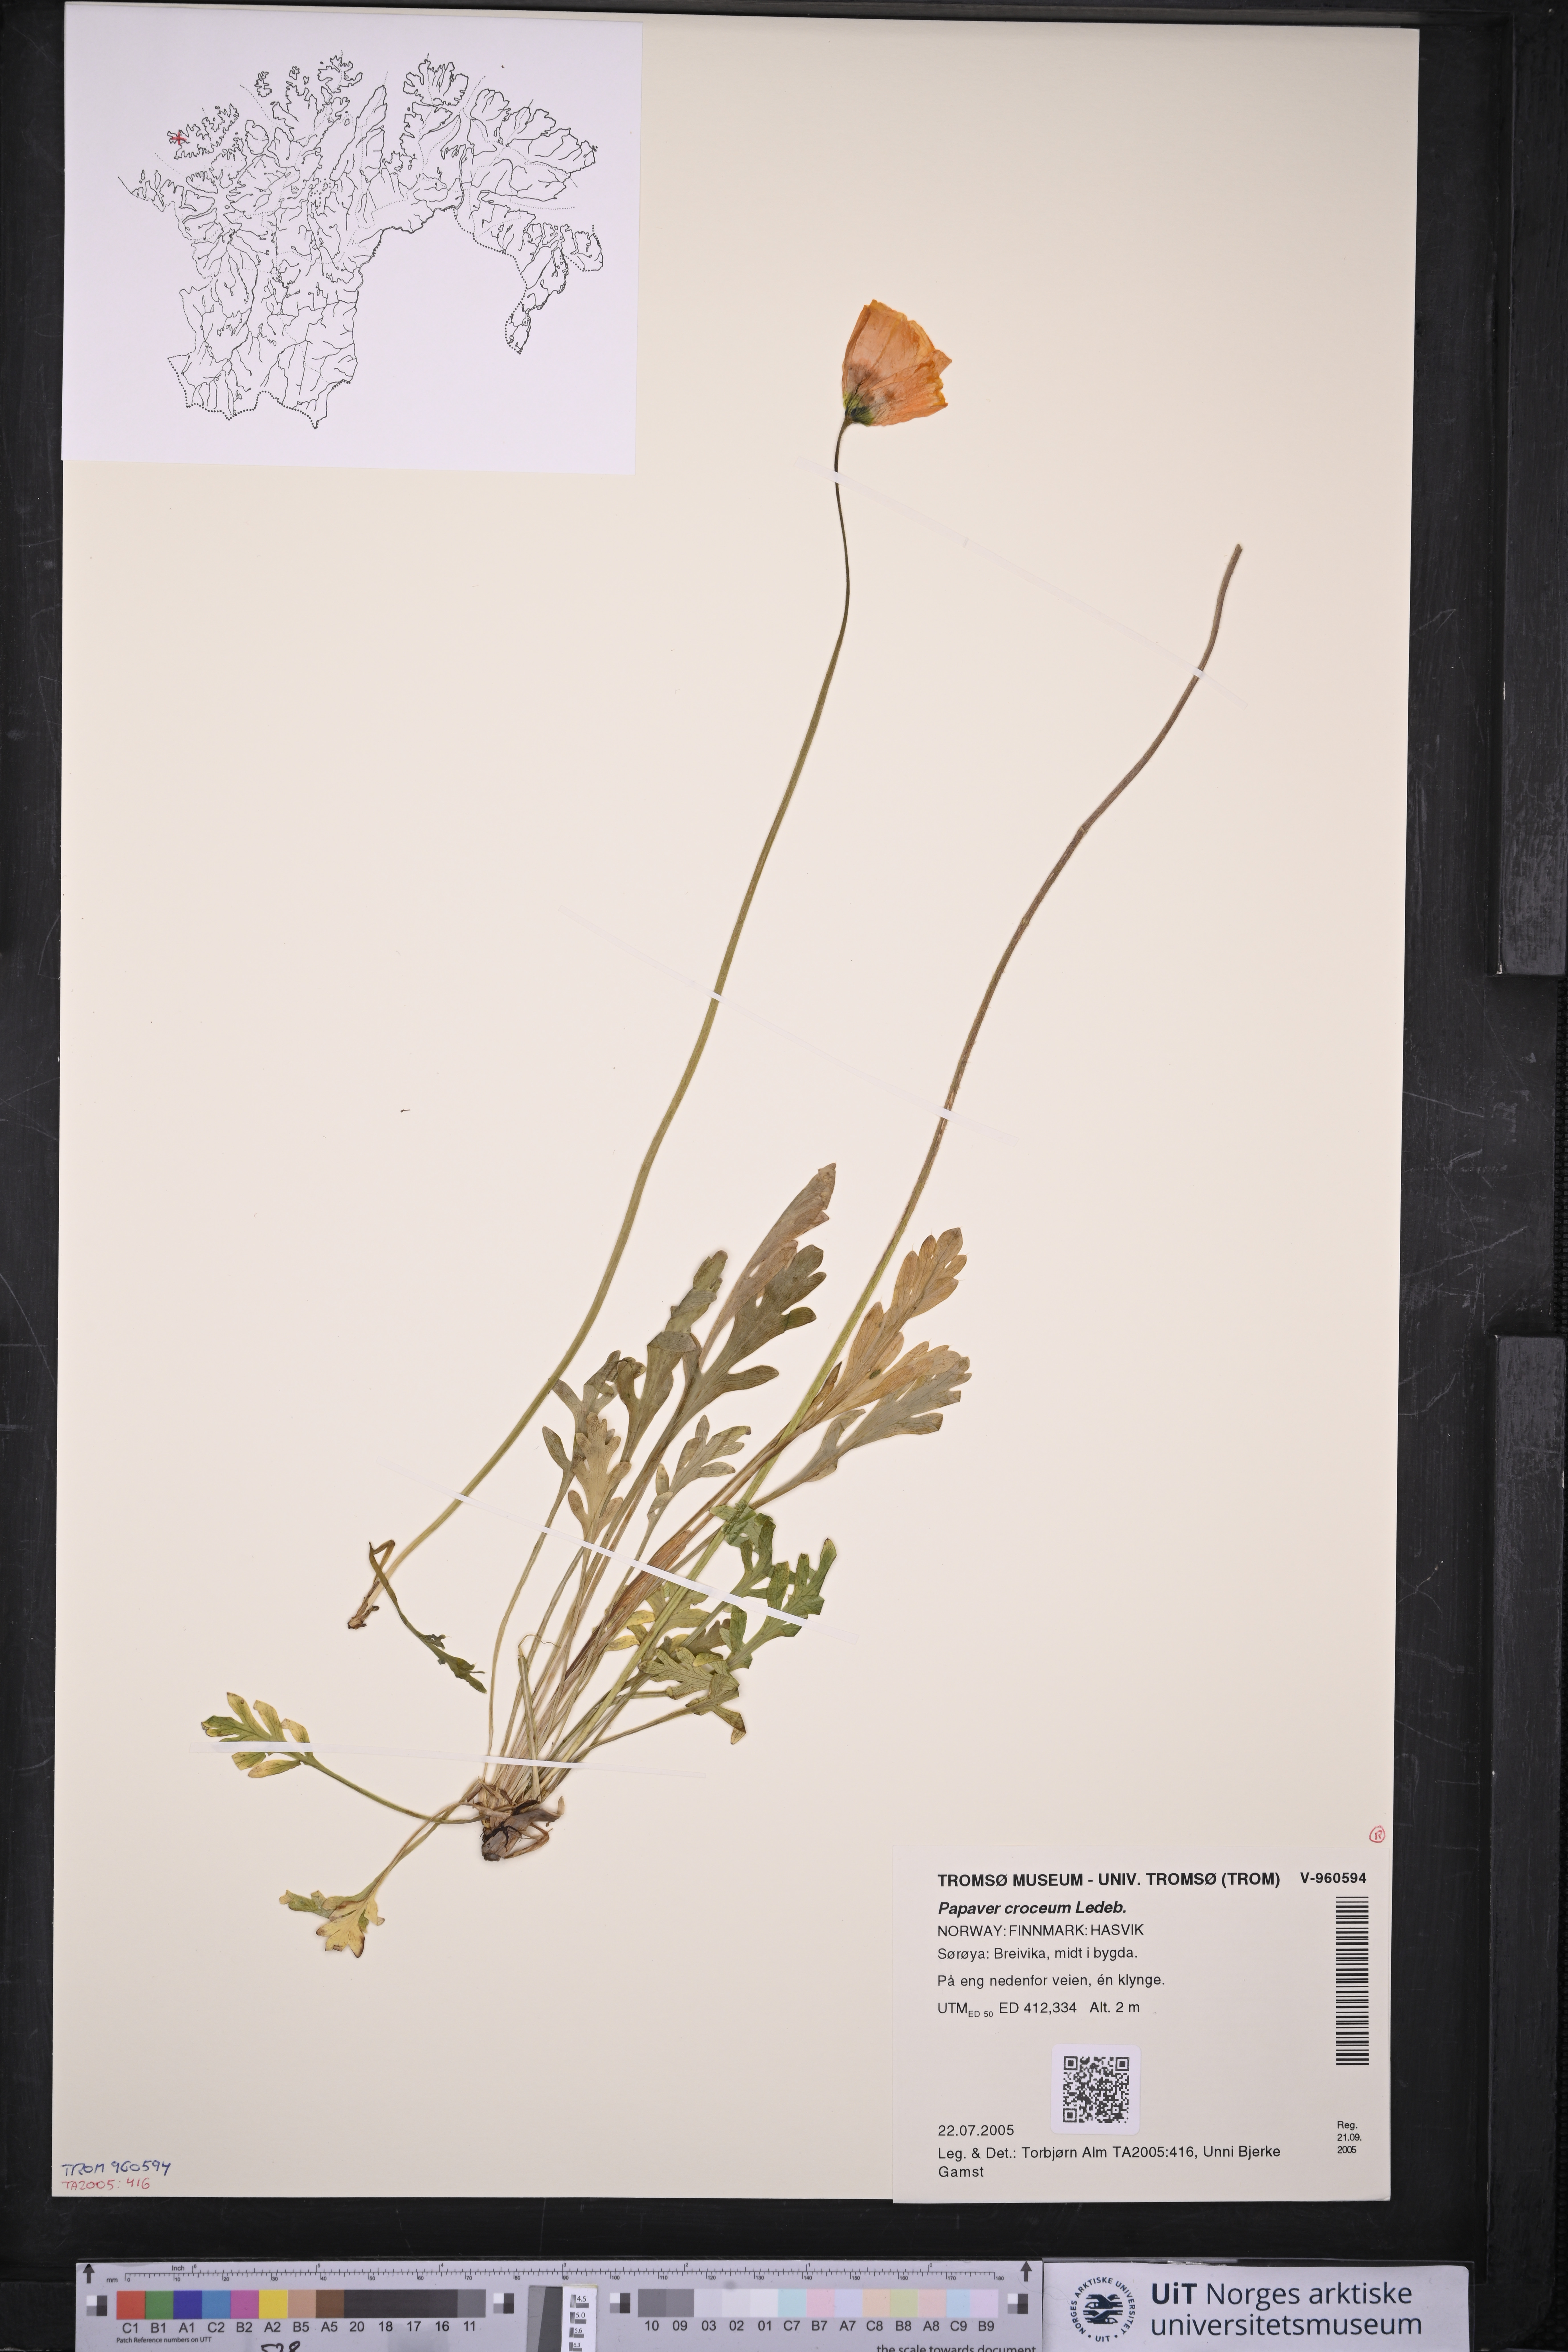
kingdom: Plantae
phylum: Tracheophyta
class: Magnoliopsida
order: Ranunculales
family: Papaveraceae
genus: Papaver
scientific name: Papaver croceum
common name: Siberian poppy
